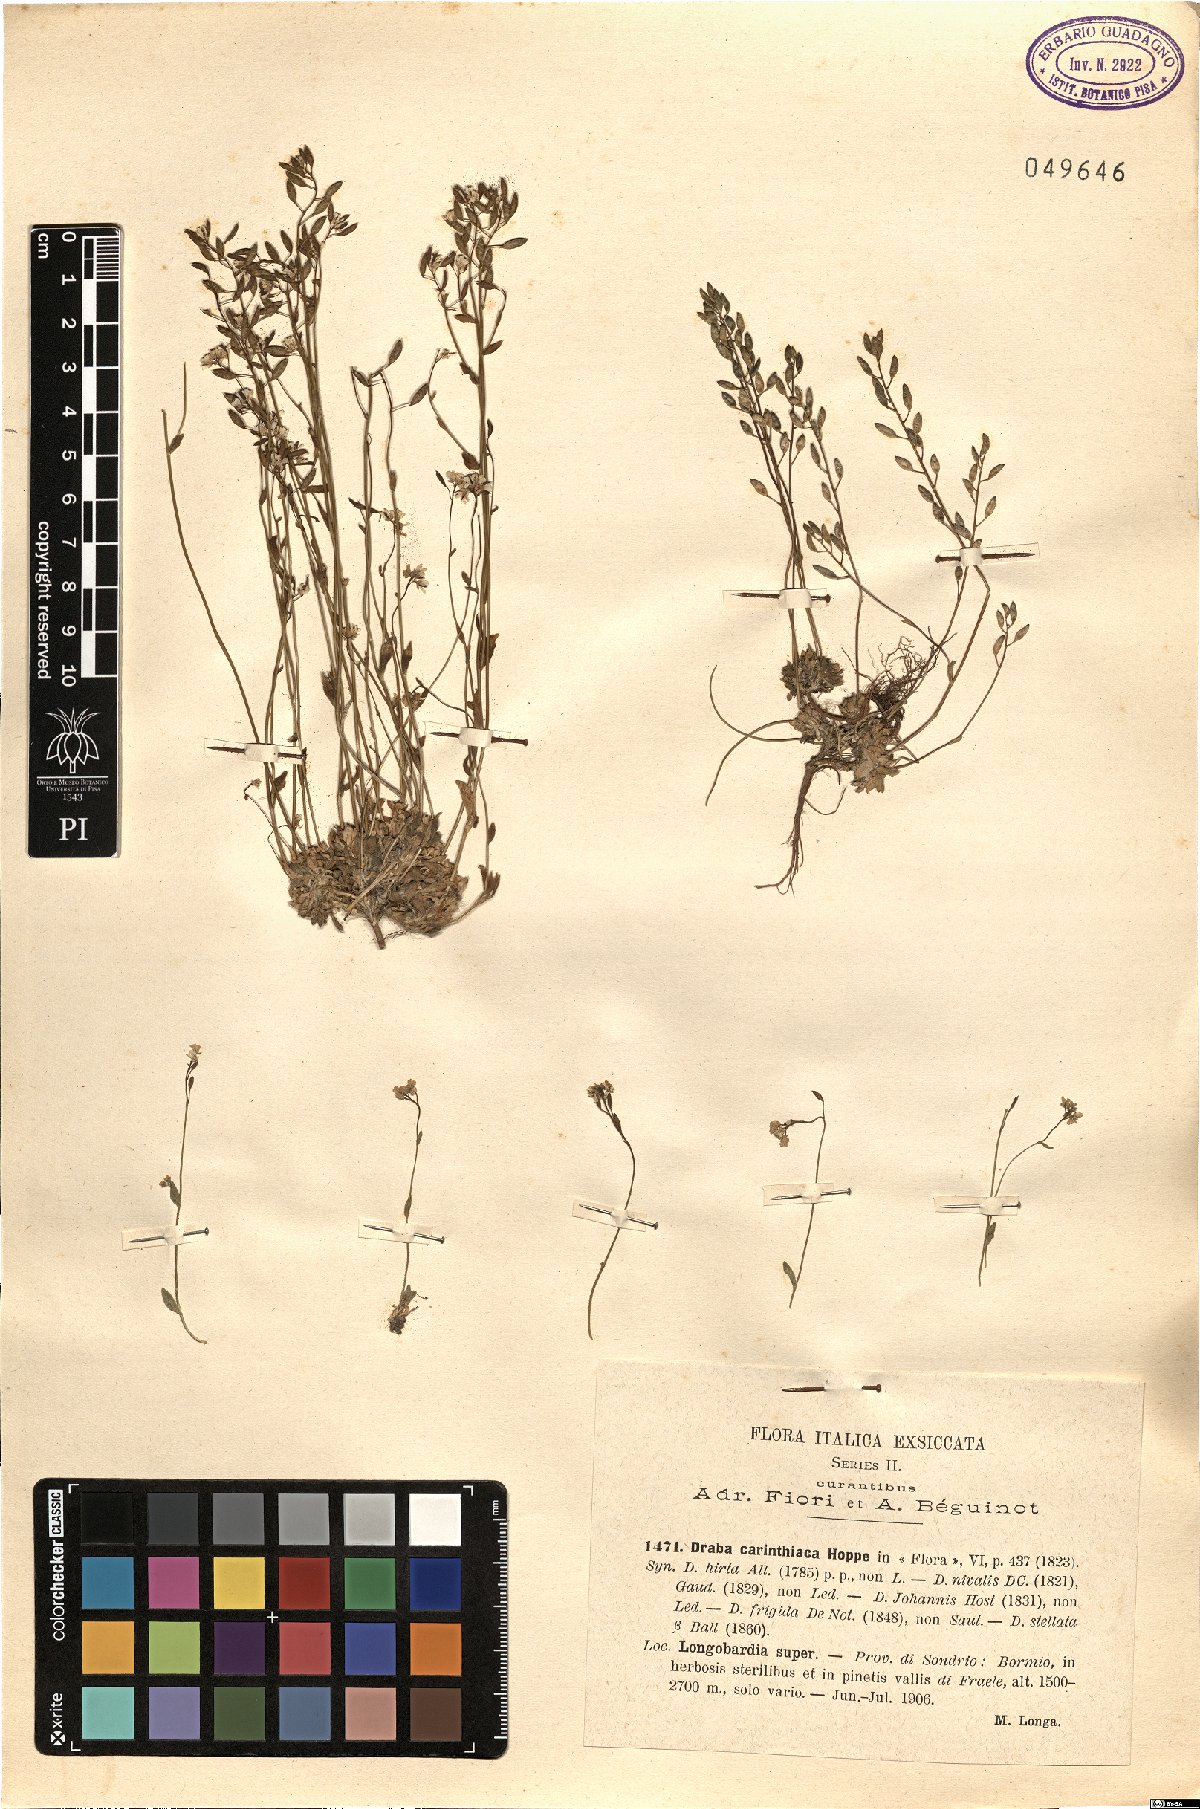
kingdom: Plantae
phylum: Tracheophyta
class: Magnoliopsida
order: Brassicales
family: Brassicaceae
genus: Draba
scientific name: Draba siliquosa
